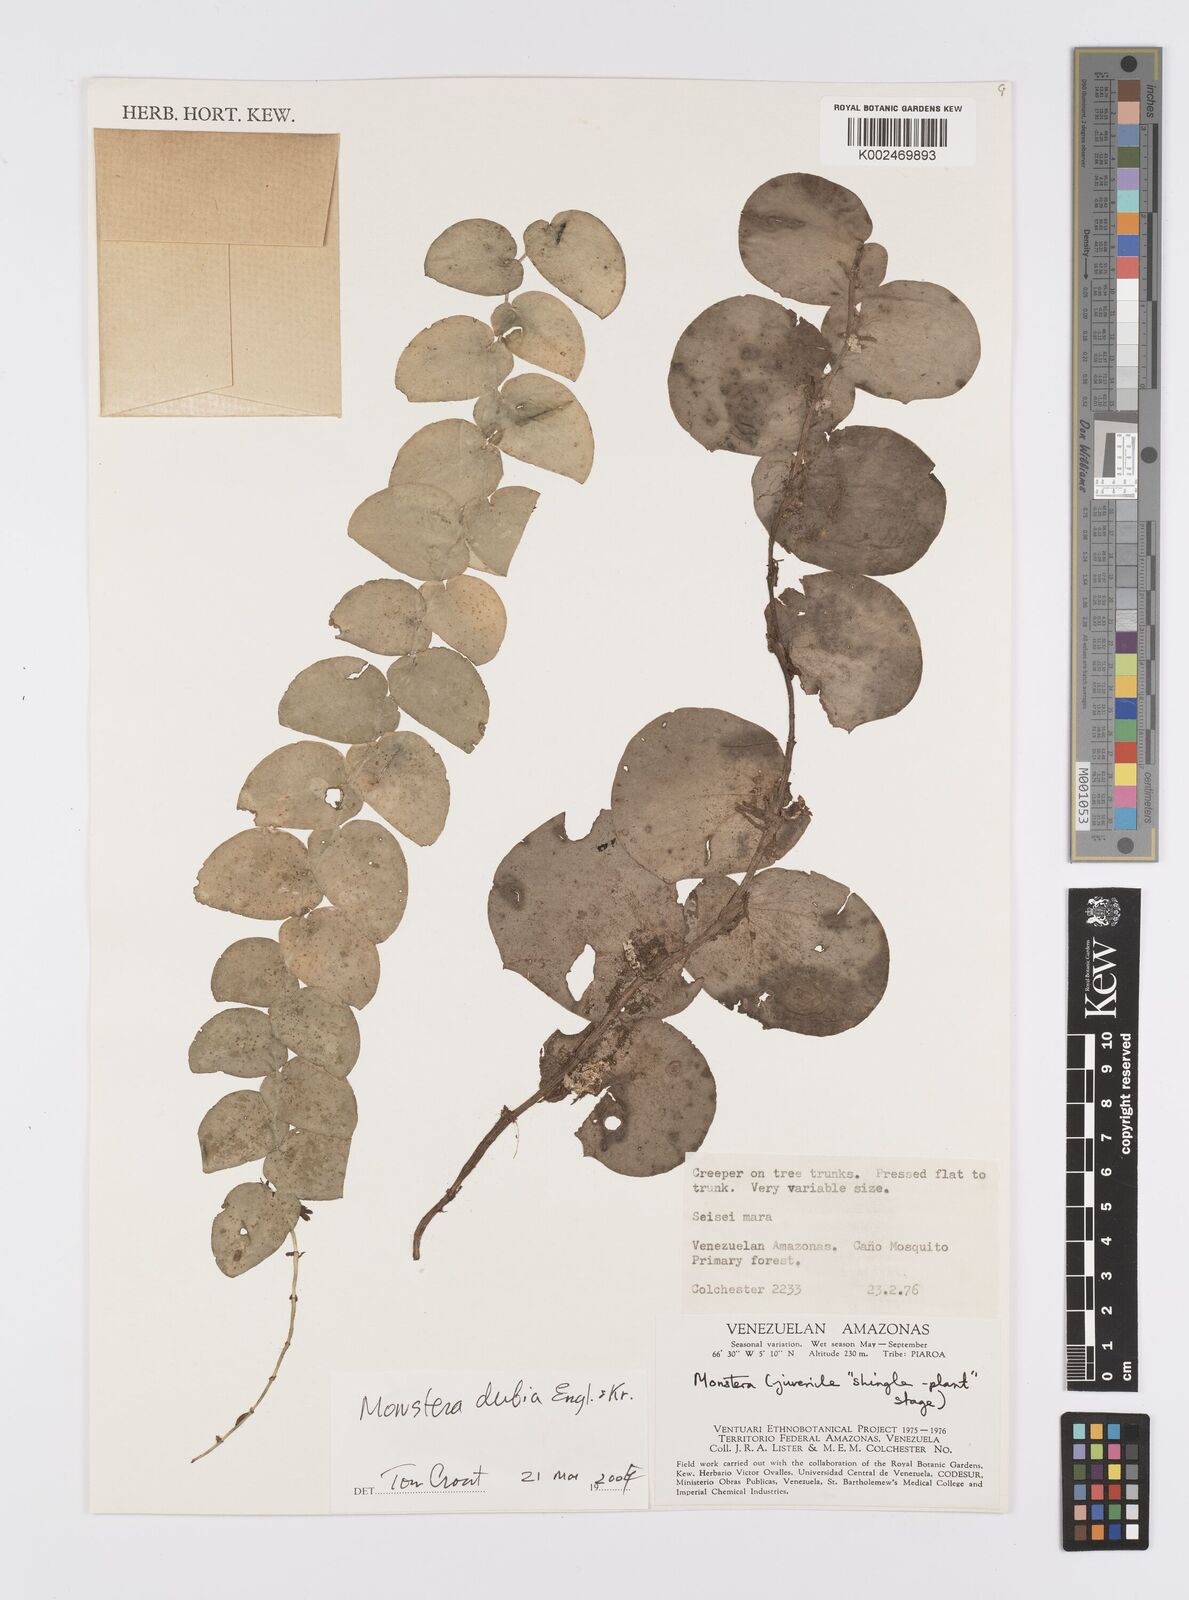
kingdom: Plantae
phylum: Tracheophyta
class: Liliopsida
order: Alismatales
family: Araceae
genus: Monstera
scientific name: Monstera dubia
